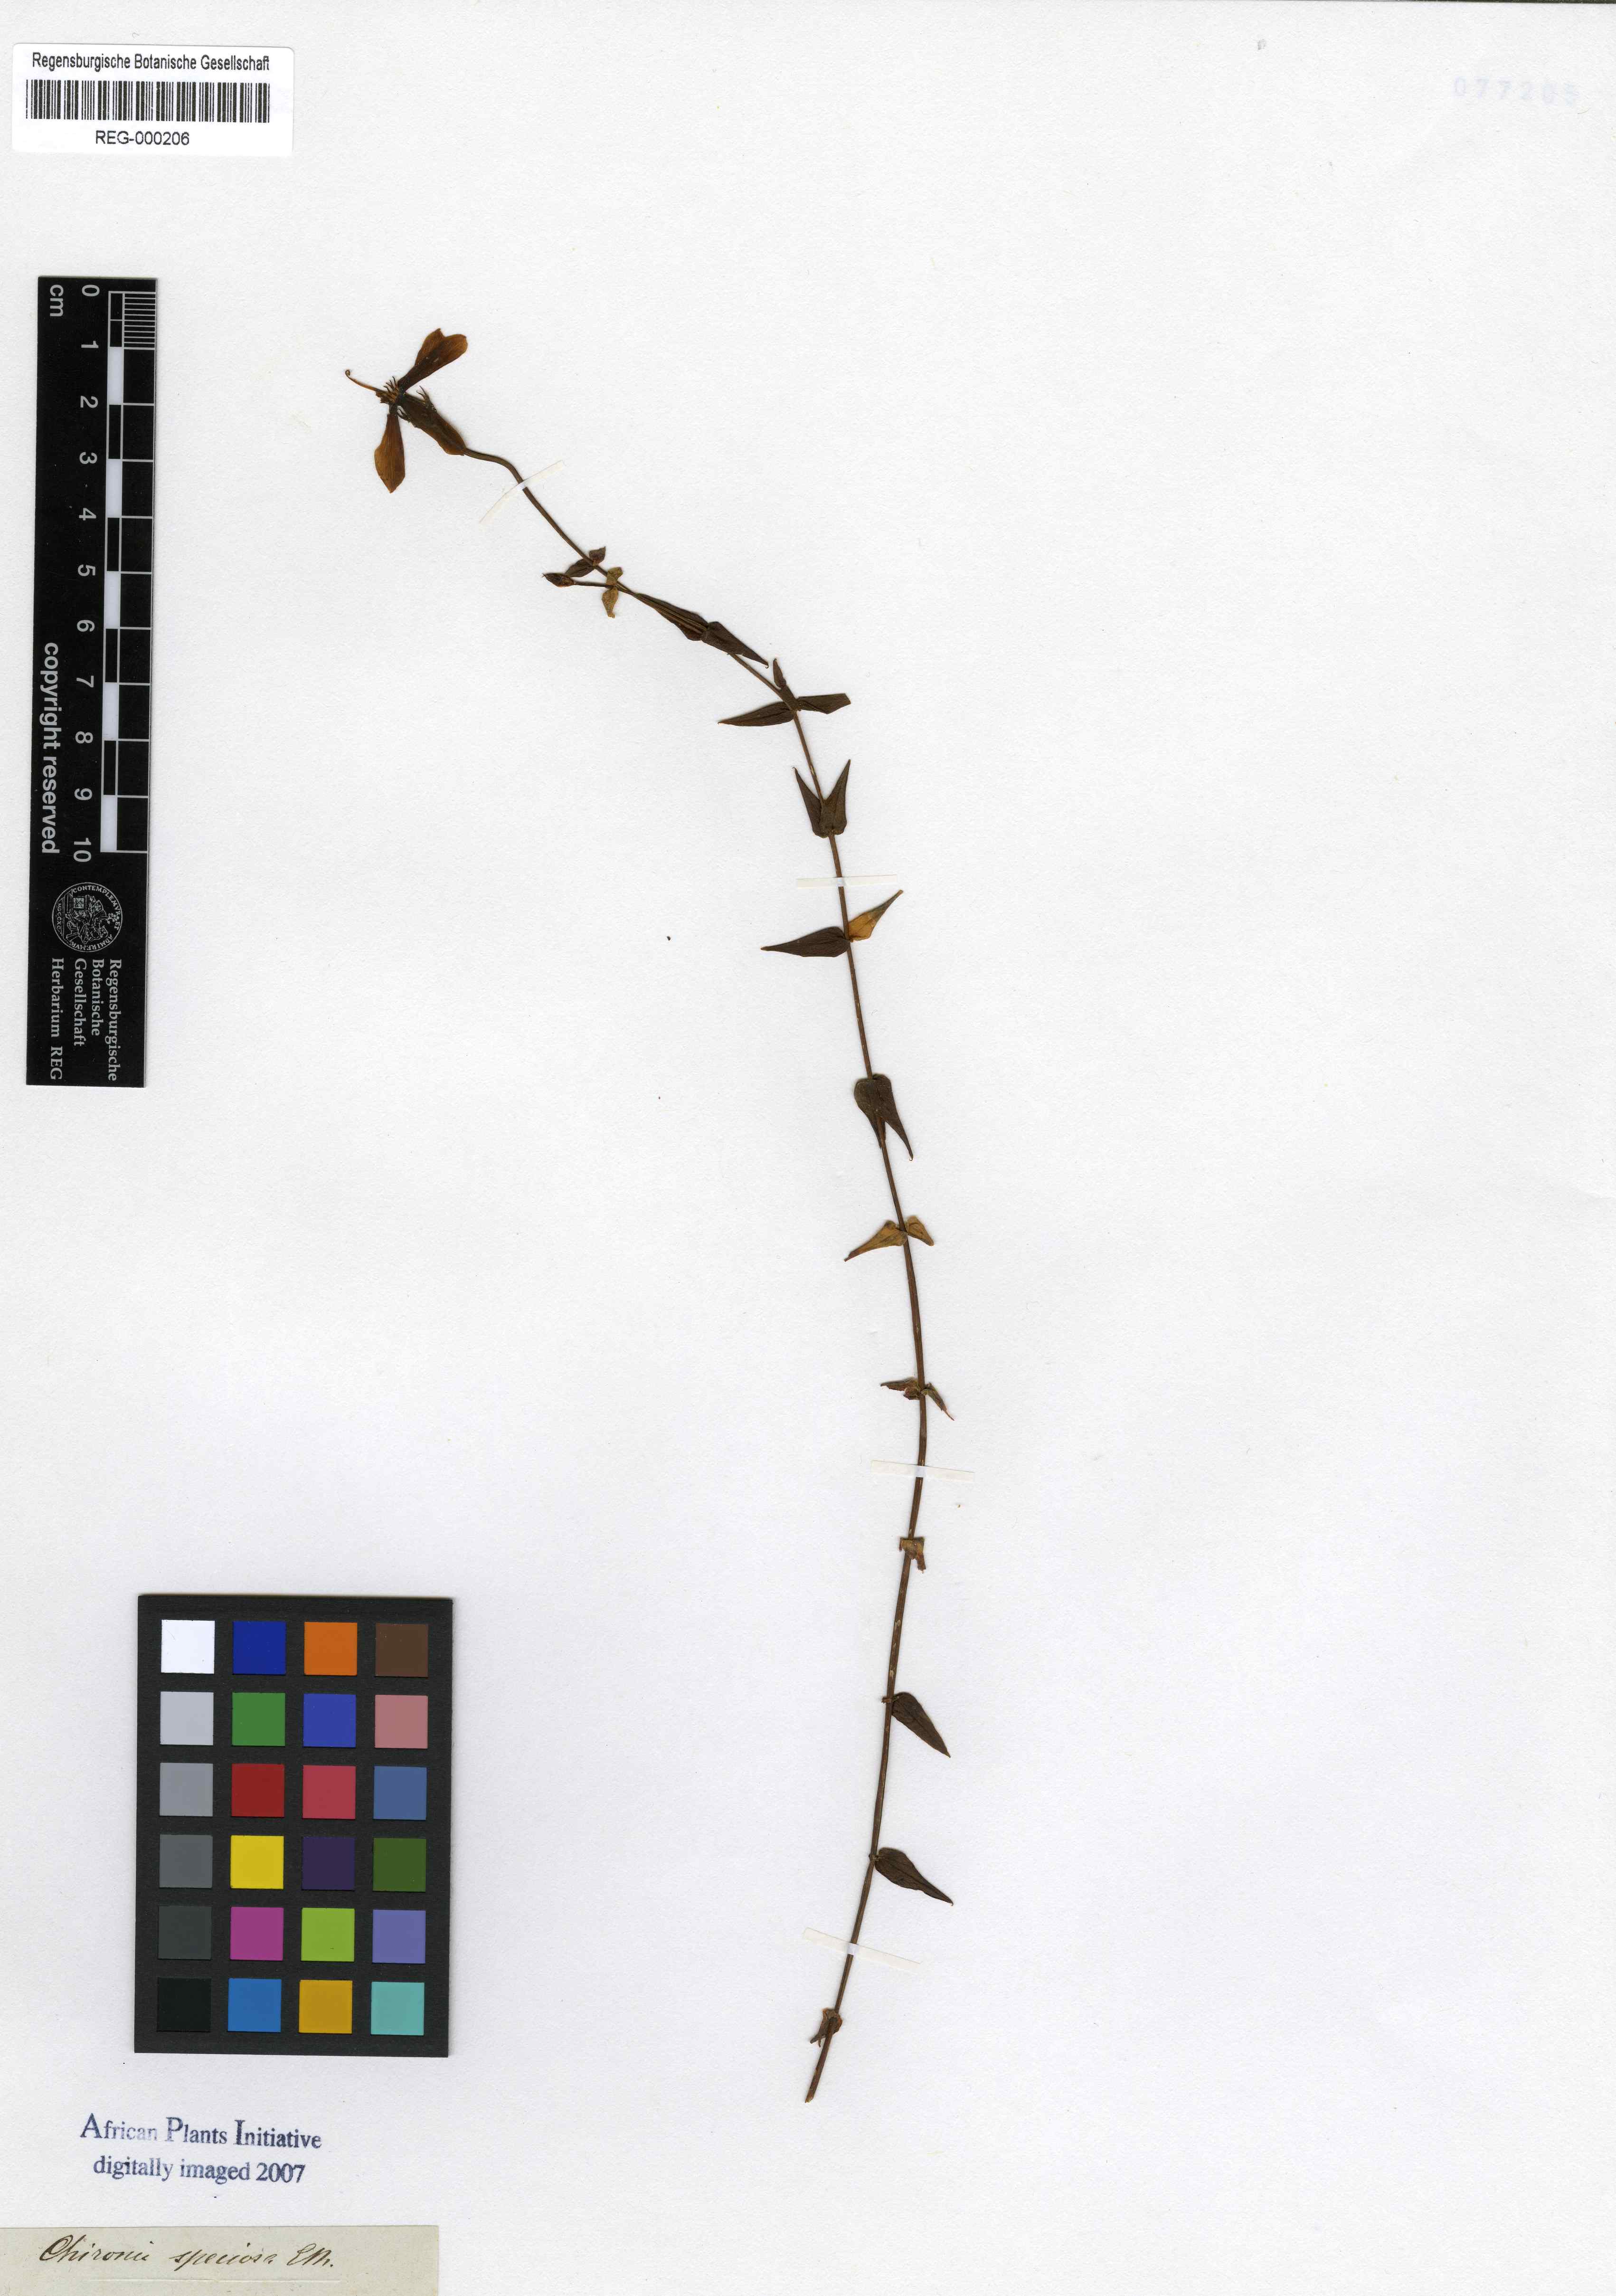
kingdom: Plantae
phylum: Tracheophyta
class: Magnoliopsida
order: Gentianales
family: Gentianaceae
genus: Chironia
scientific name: Chironia melampyrifolia
